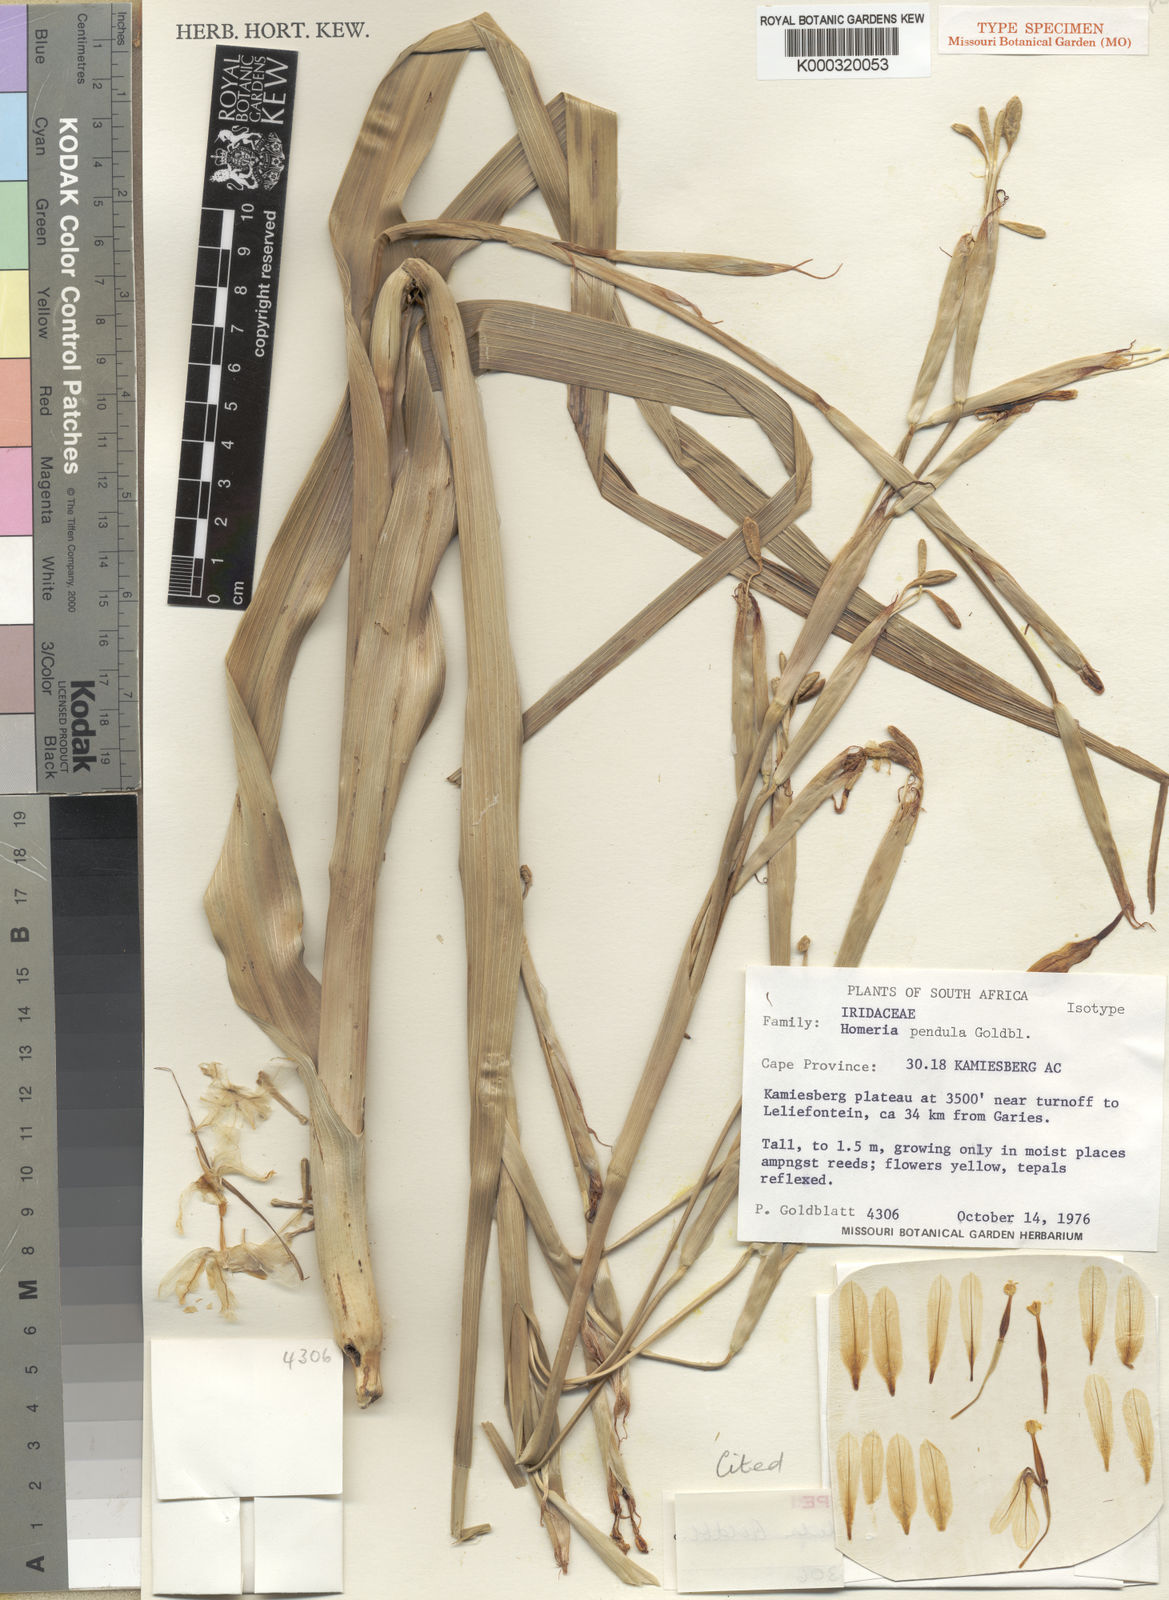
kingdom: Plantae
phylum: Tracheophyta
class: Liliopsida
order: Asparagales
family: Iridaceae
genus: Moraea
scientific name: Moraea pendula
